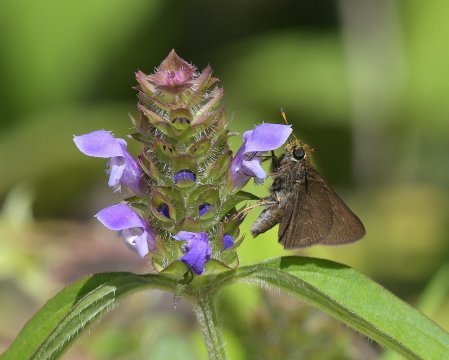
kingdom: Animalia
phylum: Arthropoda
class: Insecta
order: Lepidoptera
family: Hesperiidae
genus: Euphyes
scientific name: Euphyes vestris
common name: Dun Skipper
